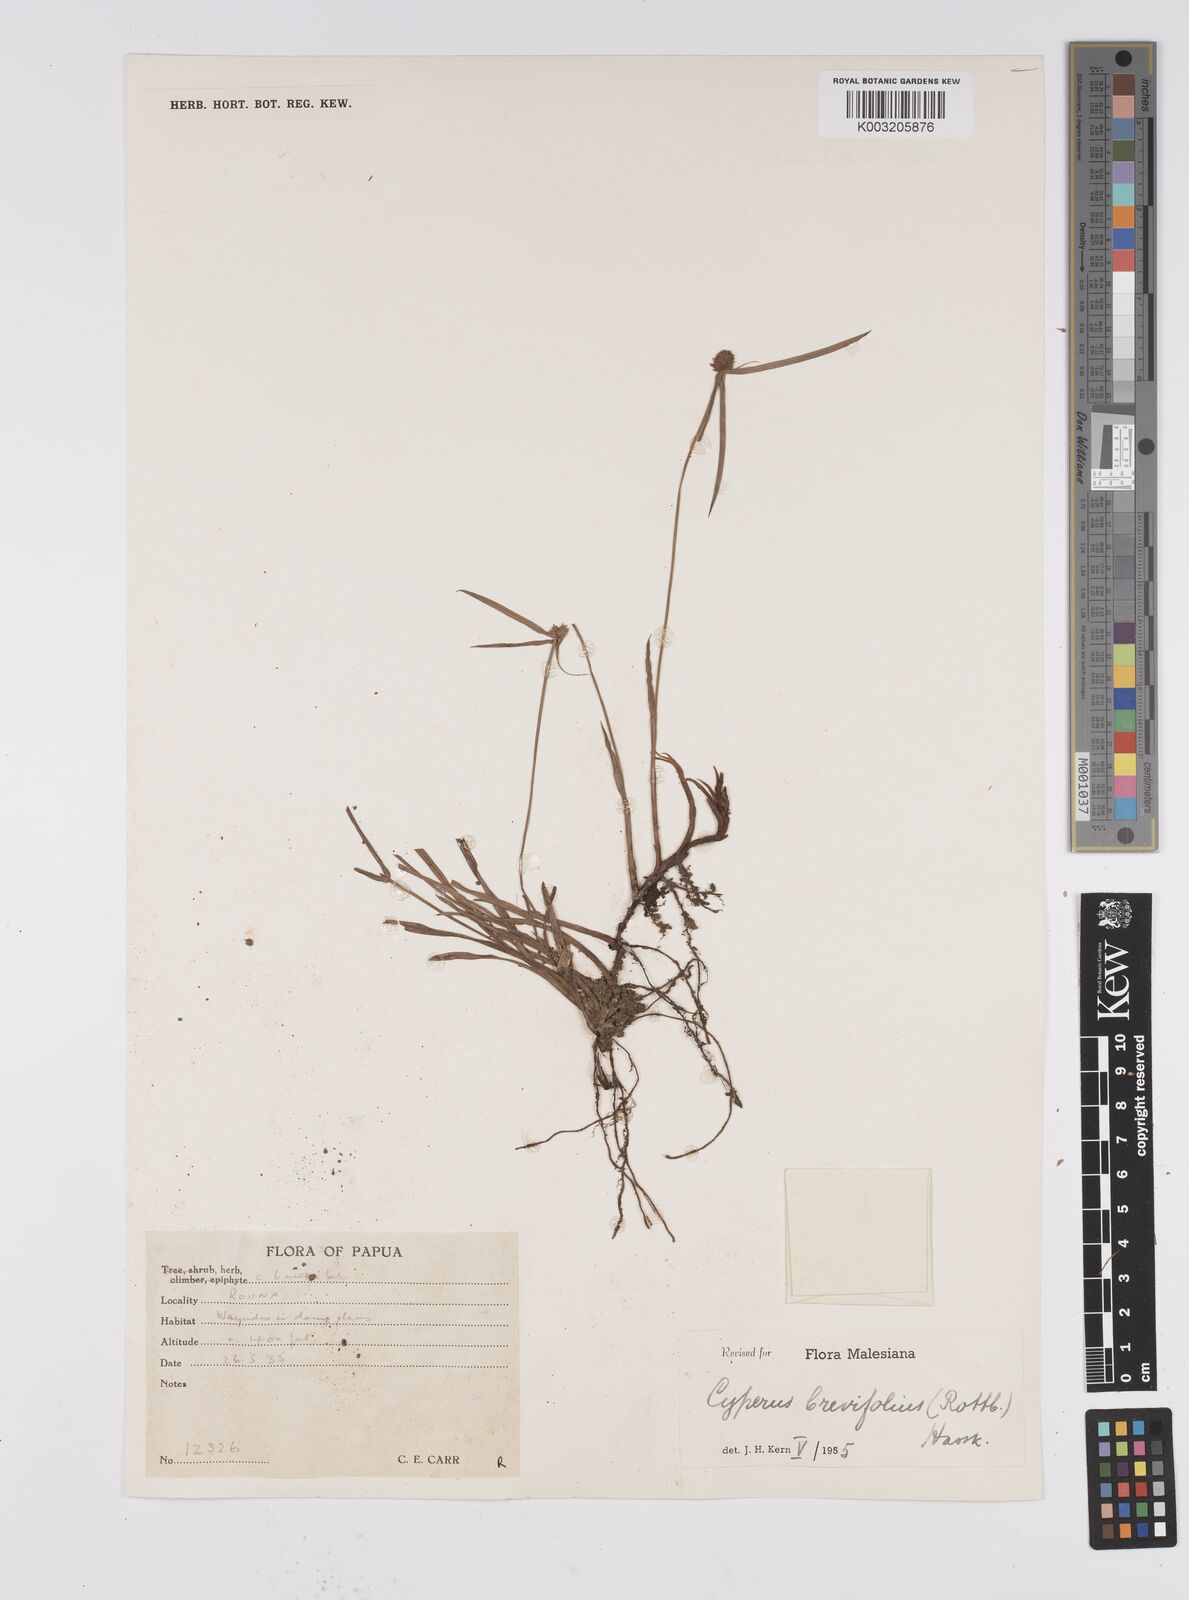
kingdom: Plantae
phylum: Tracheophyta
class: Liliopsida
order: Poales
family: Cyperaceae
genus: Cyperus
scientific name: Cyperus brevifolius
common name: Globe kyllinga
